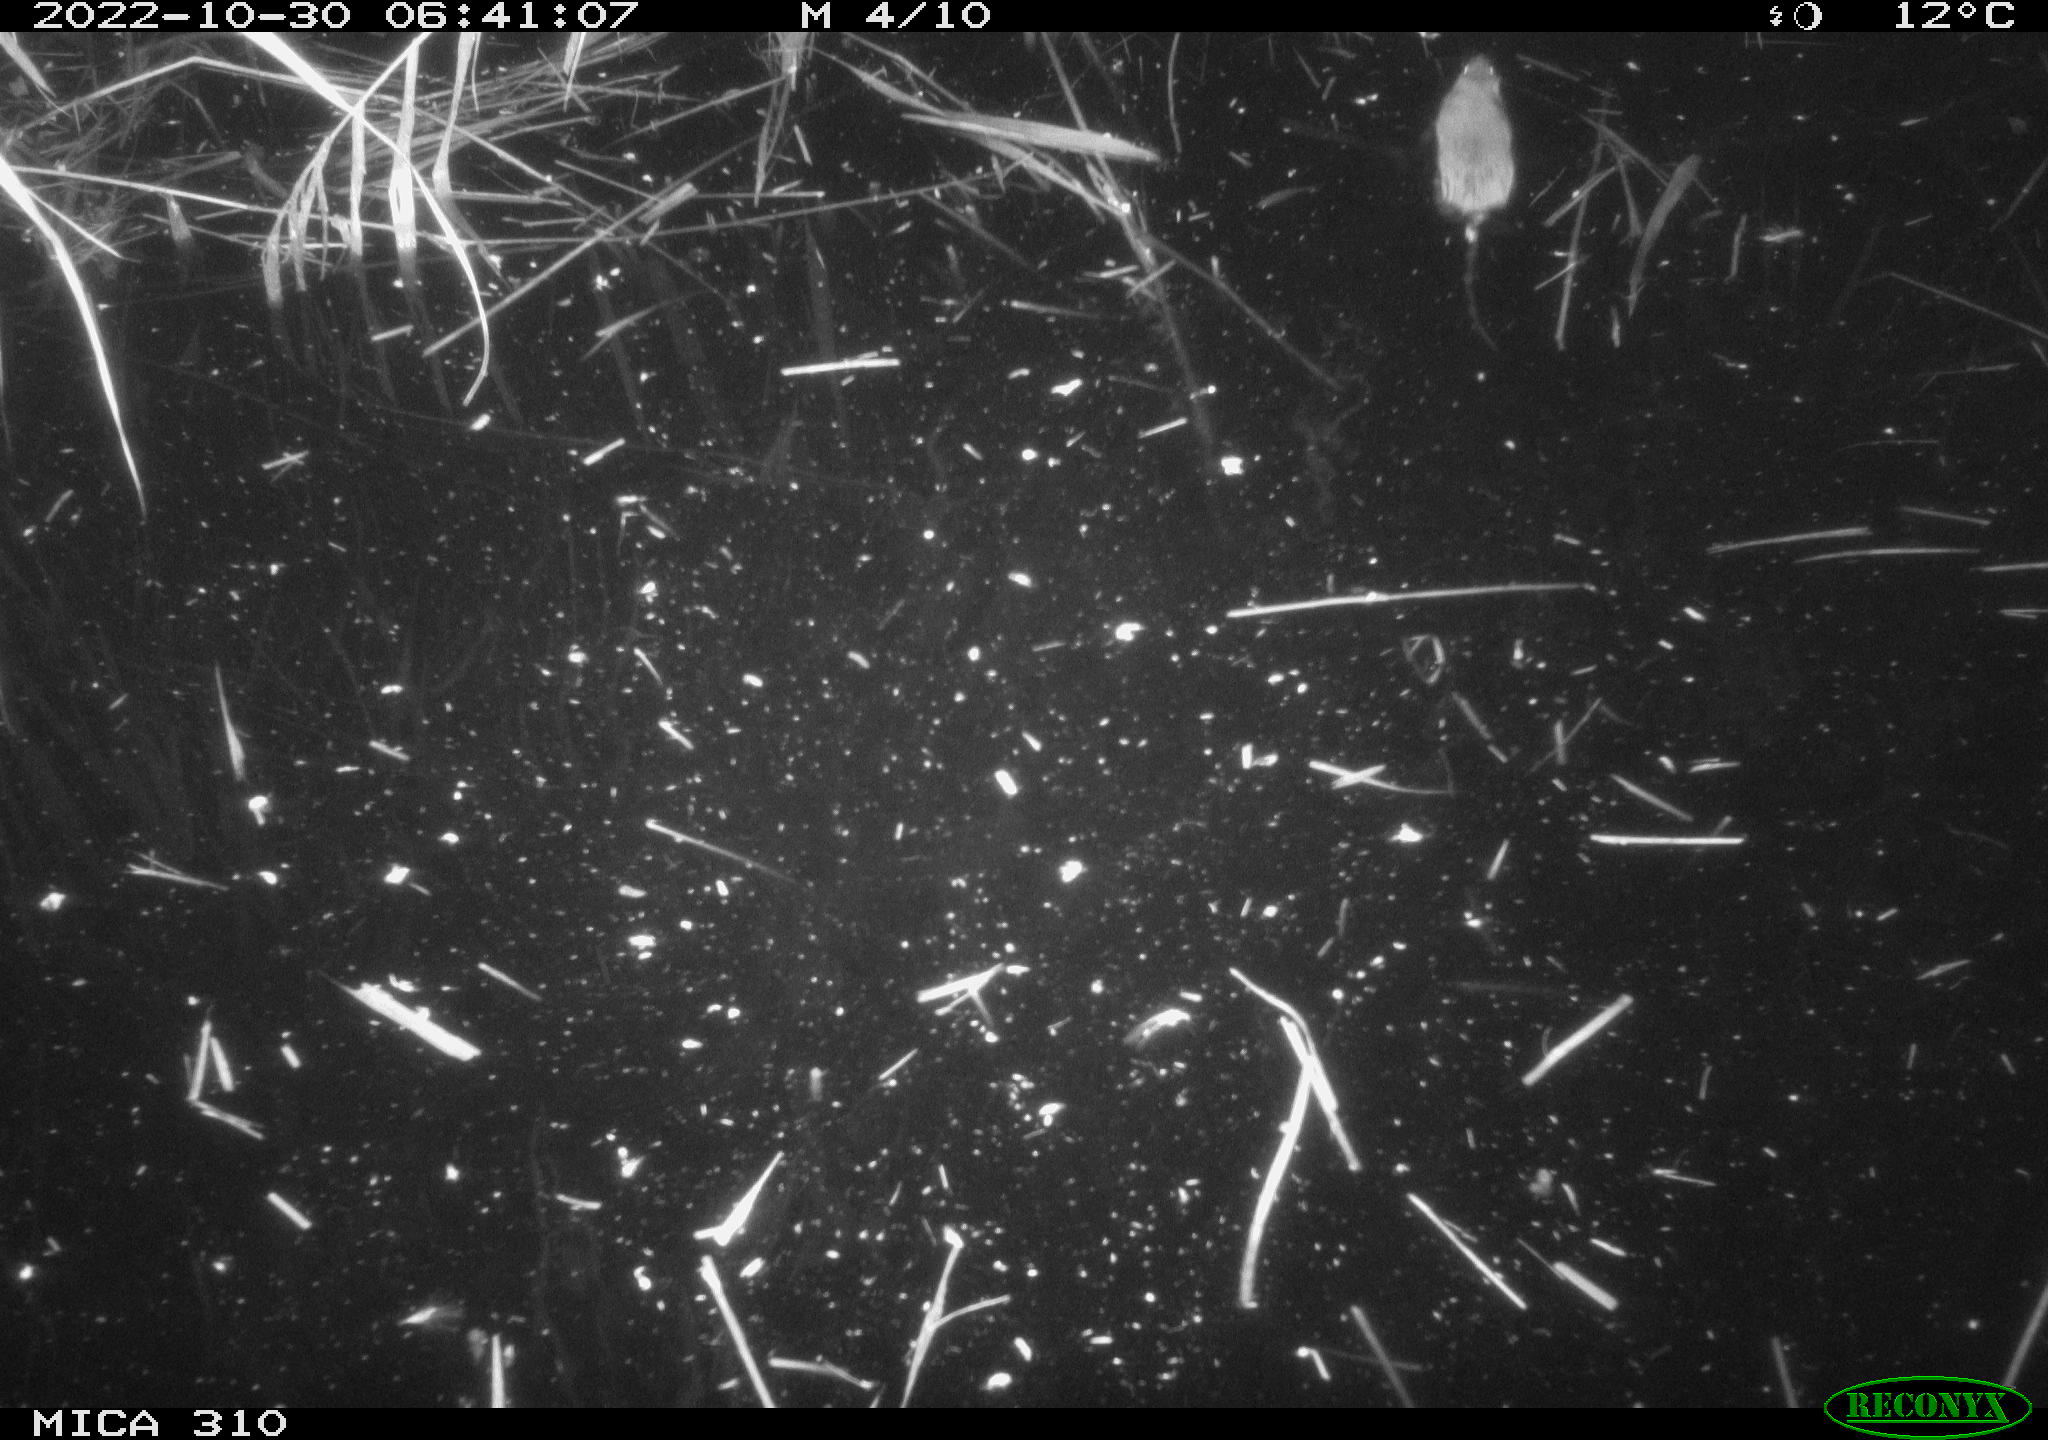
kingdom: Animalia
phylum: Chordata
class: Mammalia
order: Rodentia
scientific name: Rodentia
